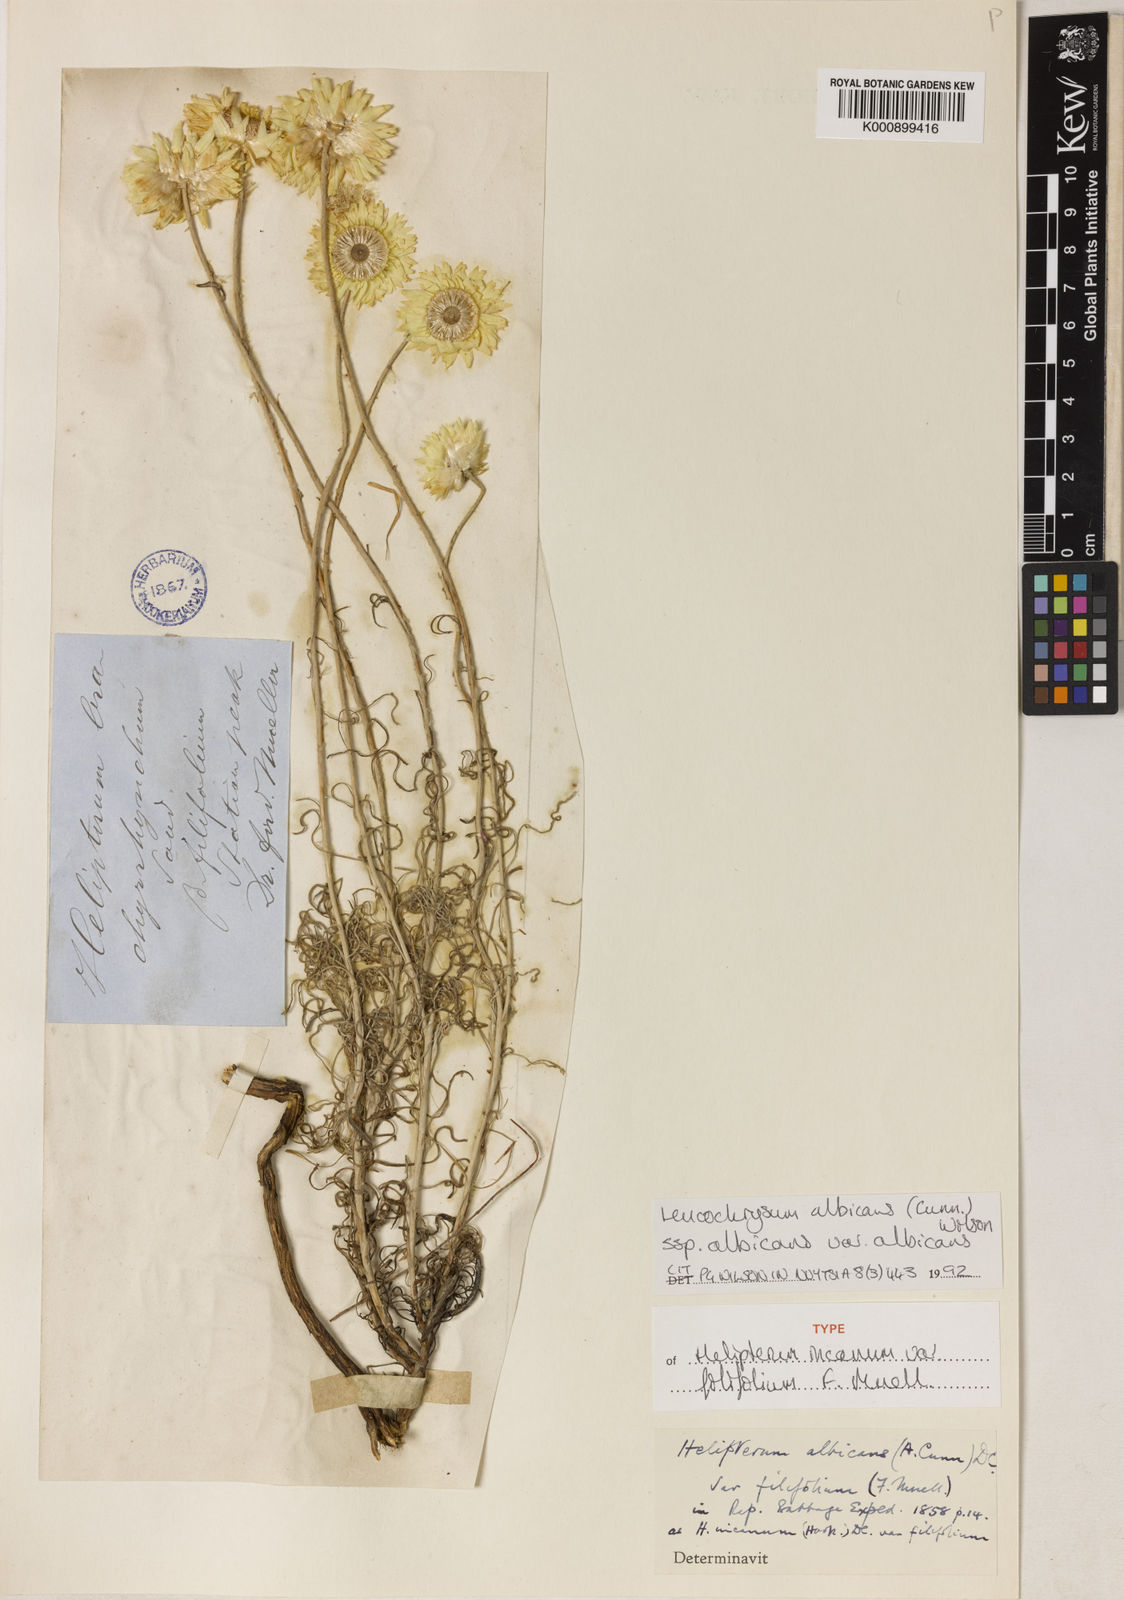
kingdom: Plantae
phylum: Tracheophyta
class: Magnoliopsida
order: Asterales
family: Asteraceae
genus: Leucochrysum
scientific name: Leucochrysum albicans
